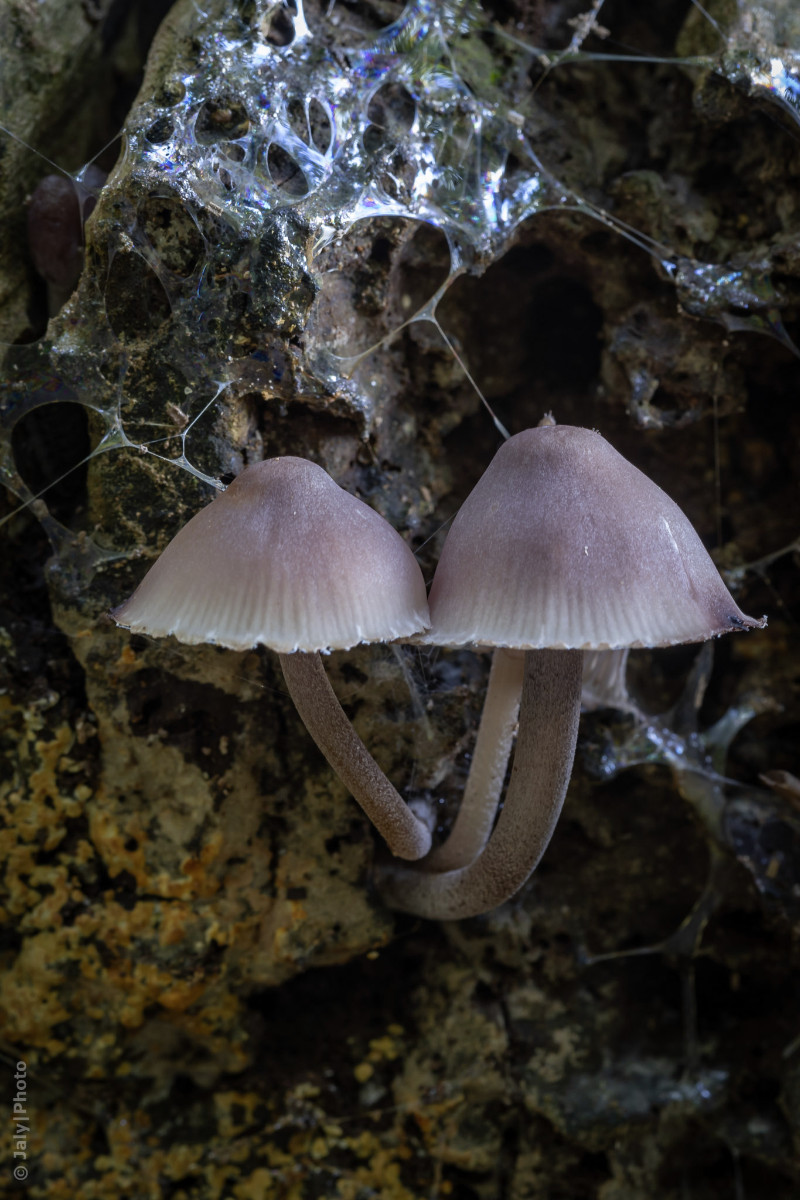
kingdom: Fungi
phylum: Basidiomycota
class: Agaricomycetes
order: Agaricales
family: Mycenaceae
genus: Mycena
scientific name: Mycena haematopus
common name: blødende huesvamp
